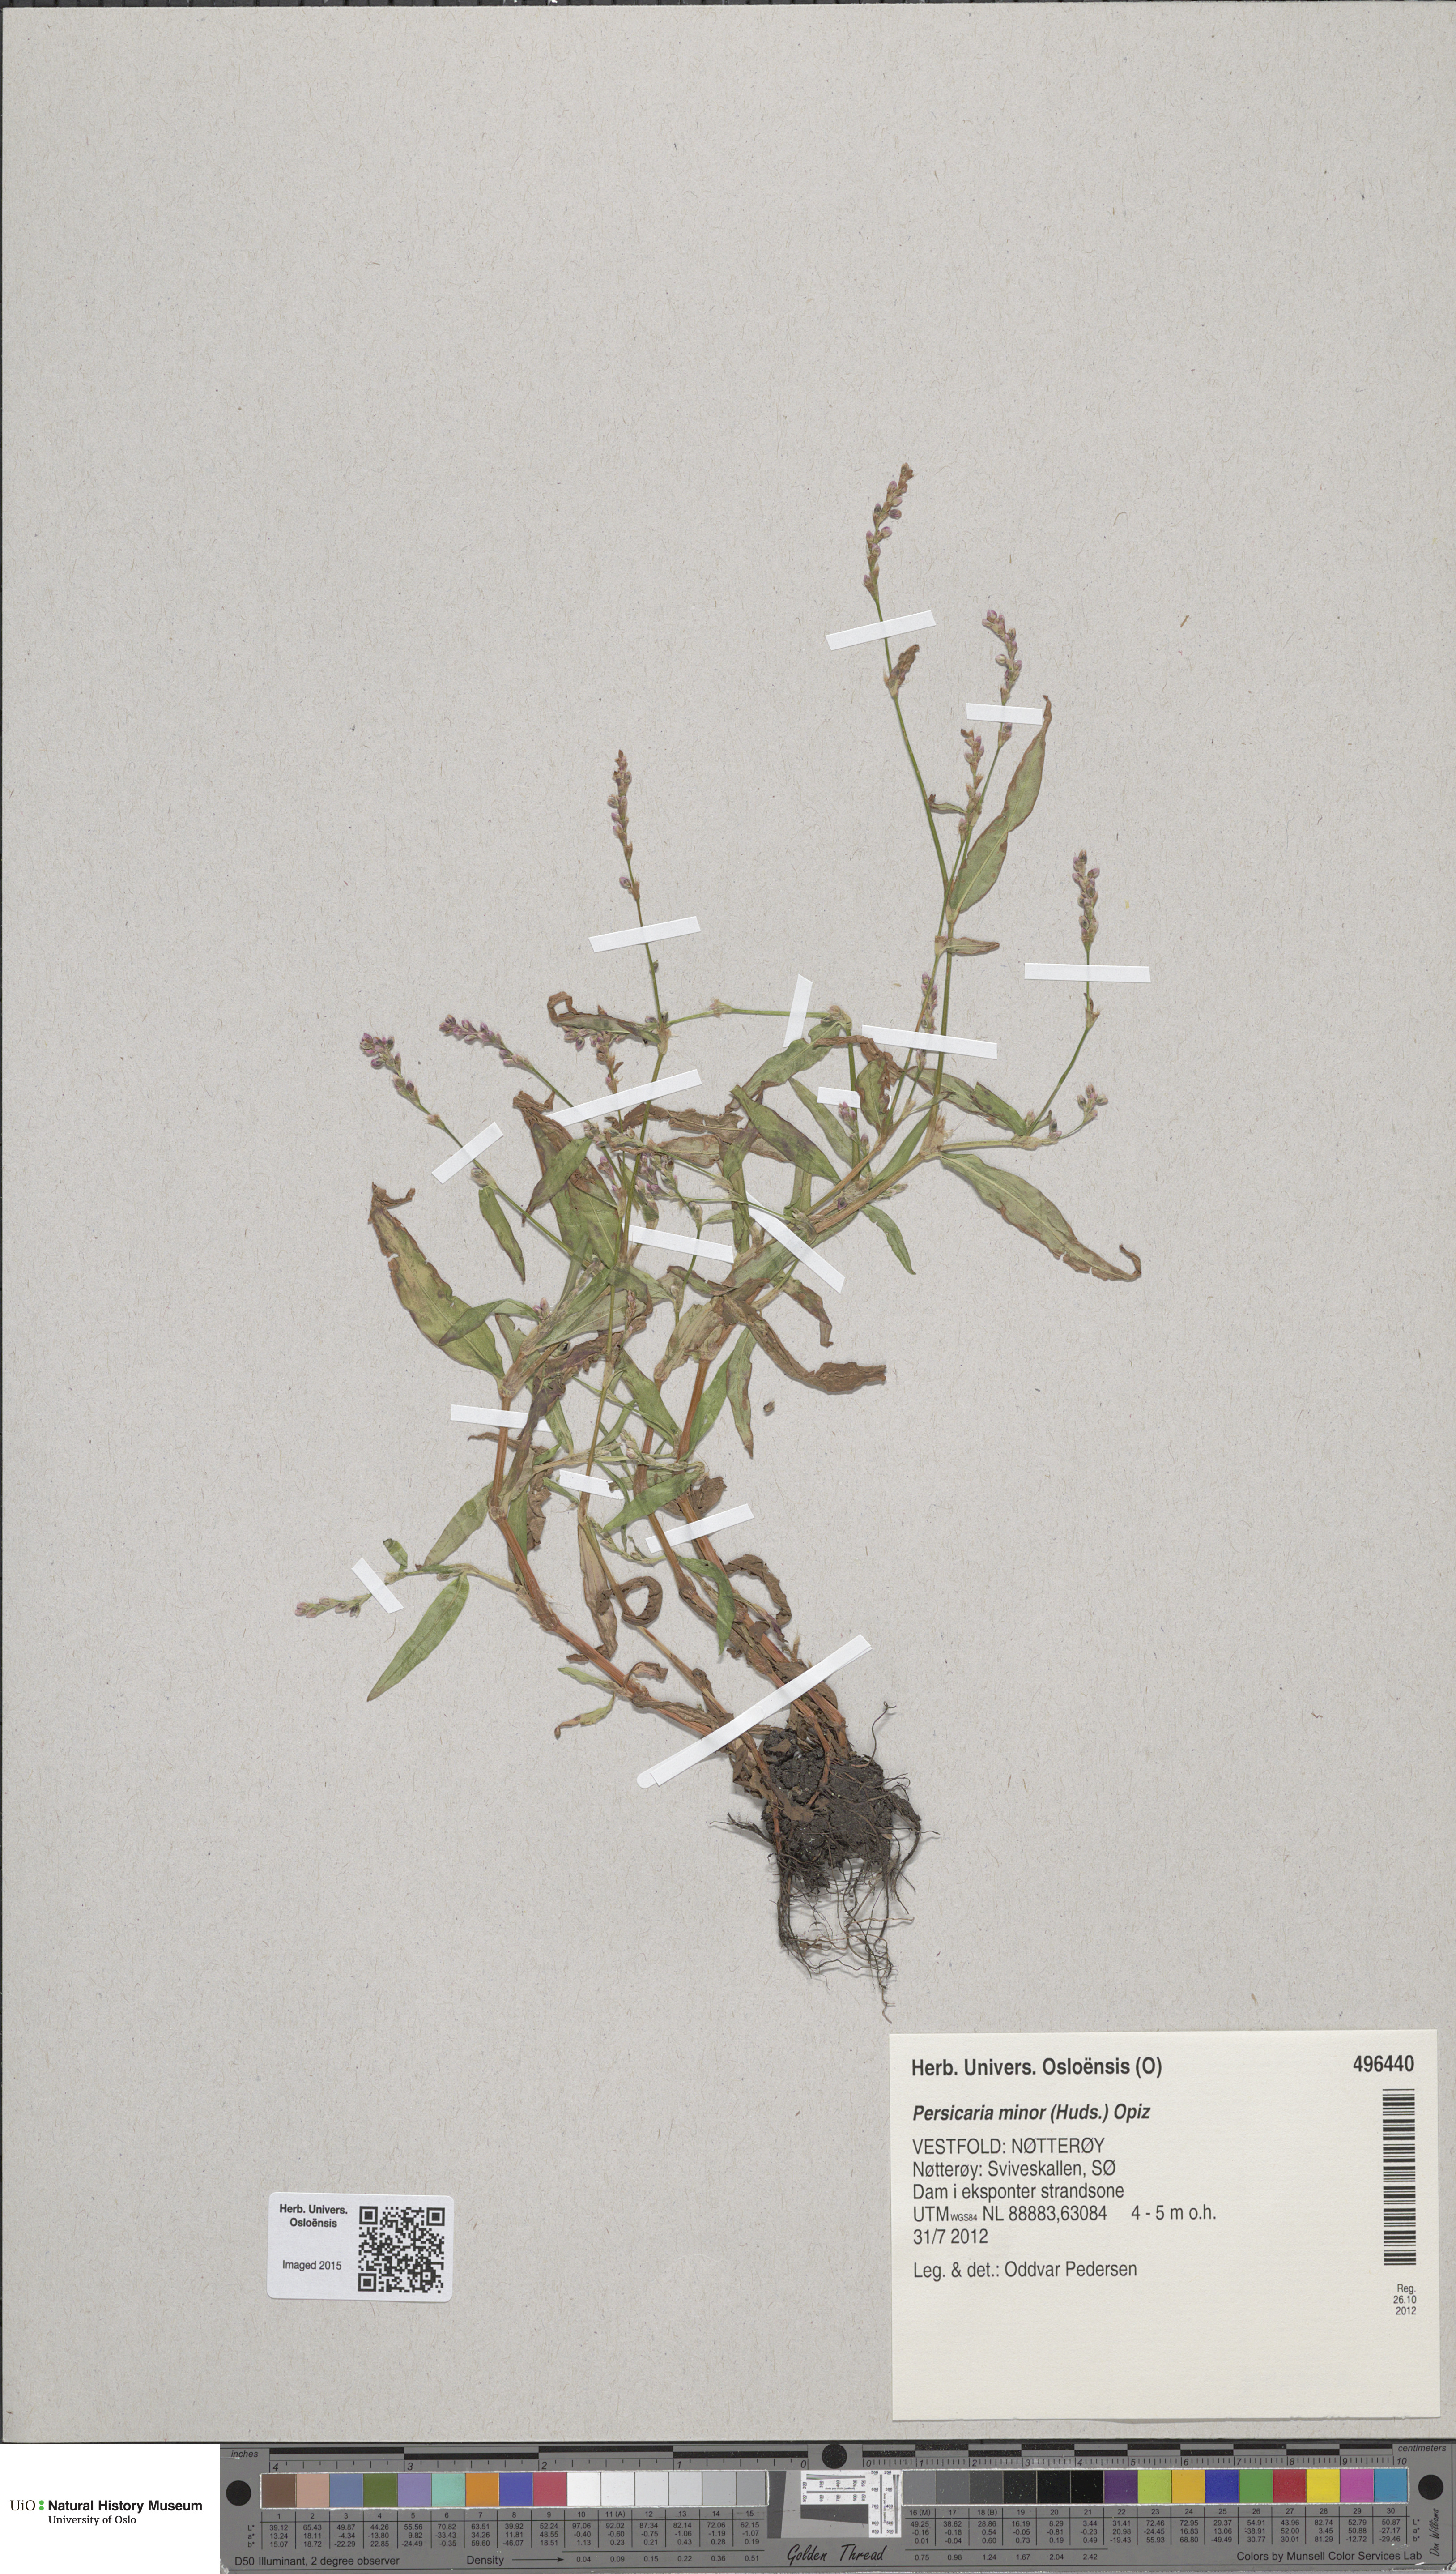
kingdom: Plantae
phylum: Tracheophyta
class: Magnoliopsida
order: Caryophyllales
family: Polygonaceae
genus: Persicaria
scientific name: Persicaria minor
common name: Small water-pepper
